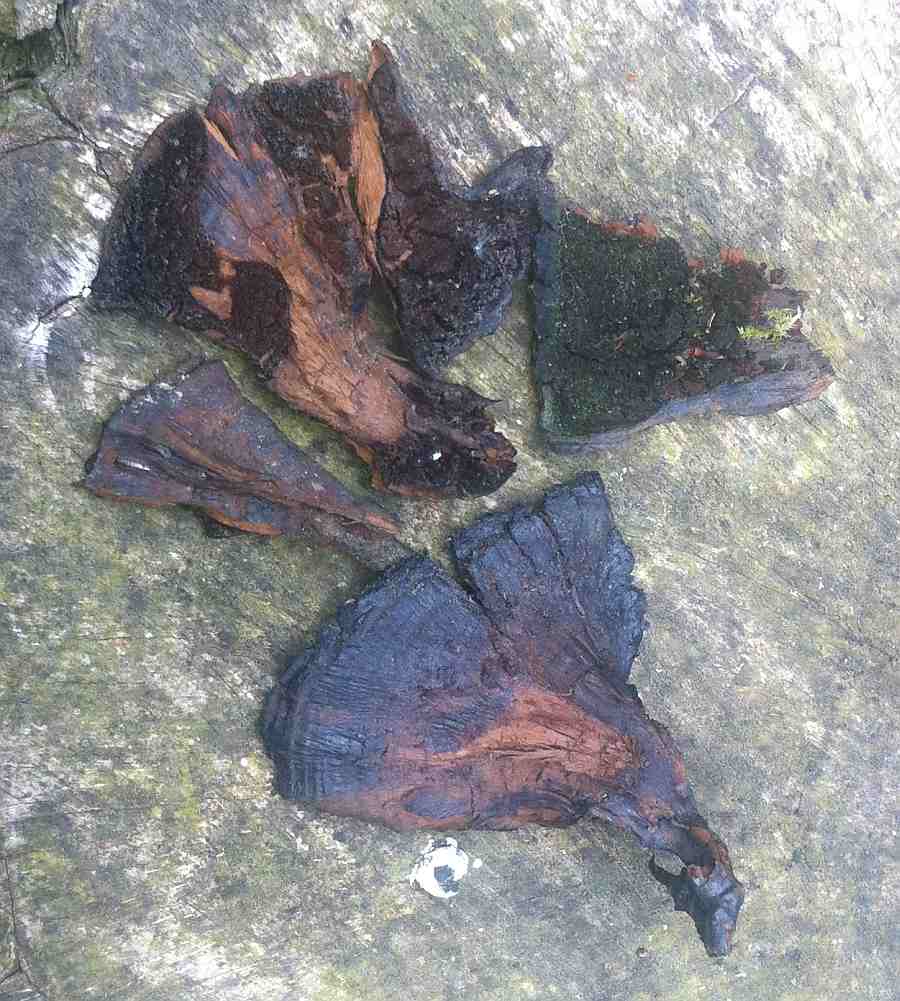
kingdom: Fungi
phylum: Basidiomycota
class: Agaricomycetes
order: Hymenochaetales
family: Hymenochaetaceae
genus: Inonotus
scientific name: Inonotus cuticularis
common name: kroghåret spejlporesvamp
